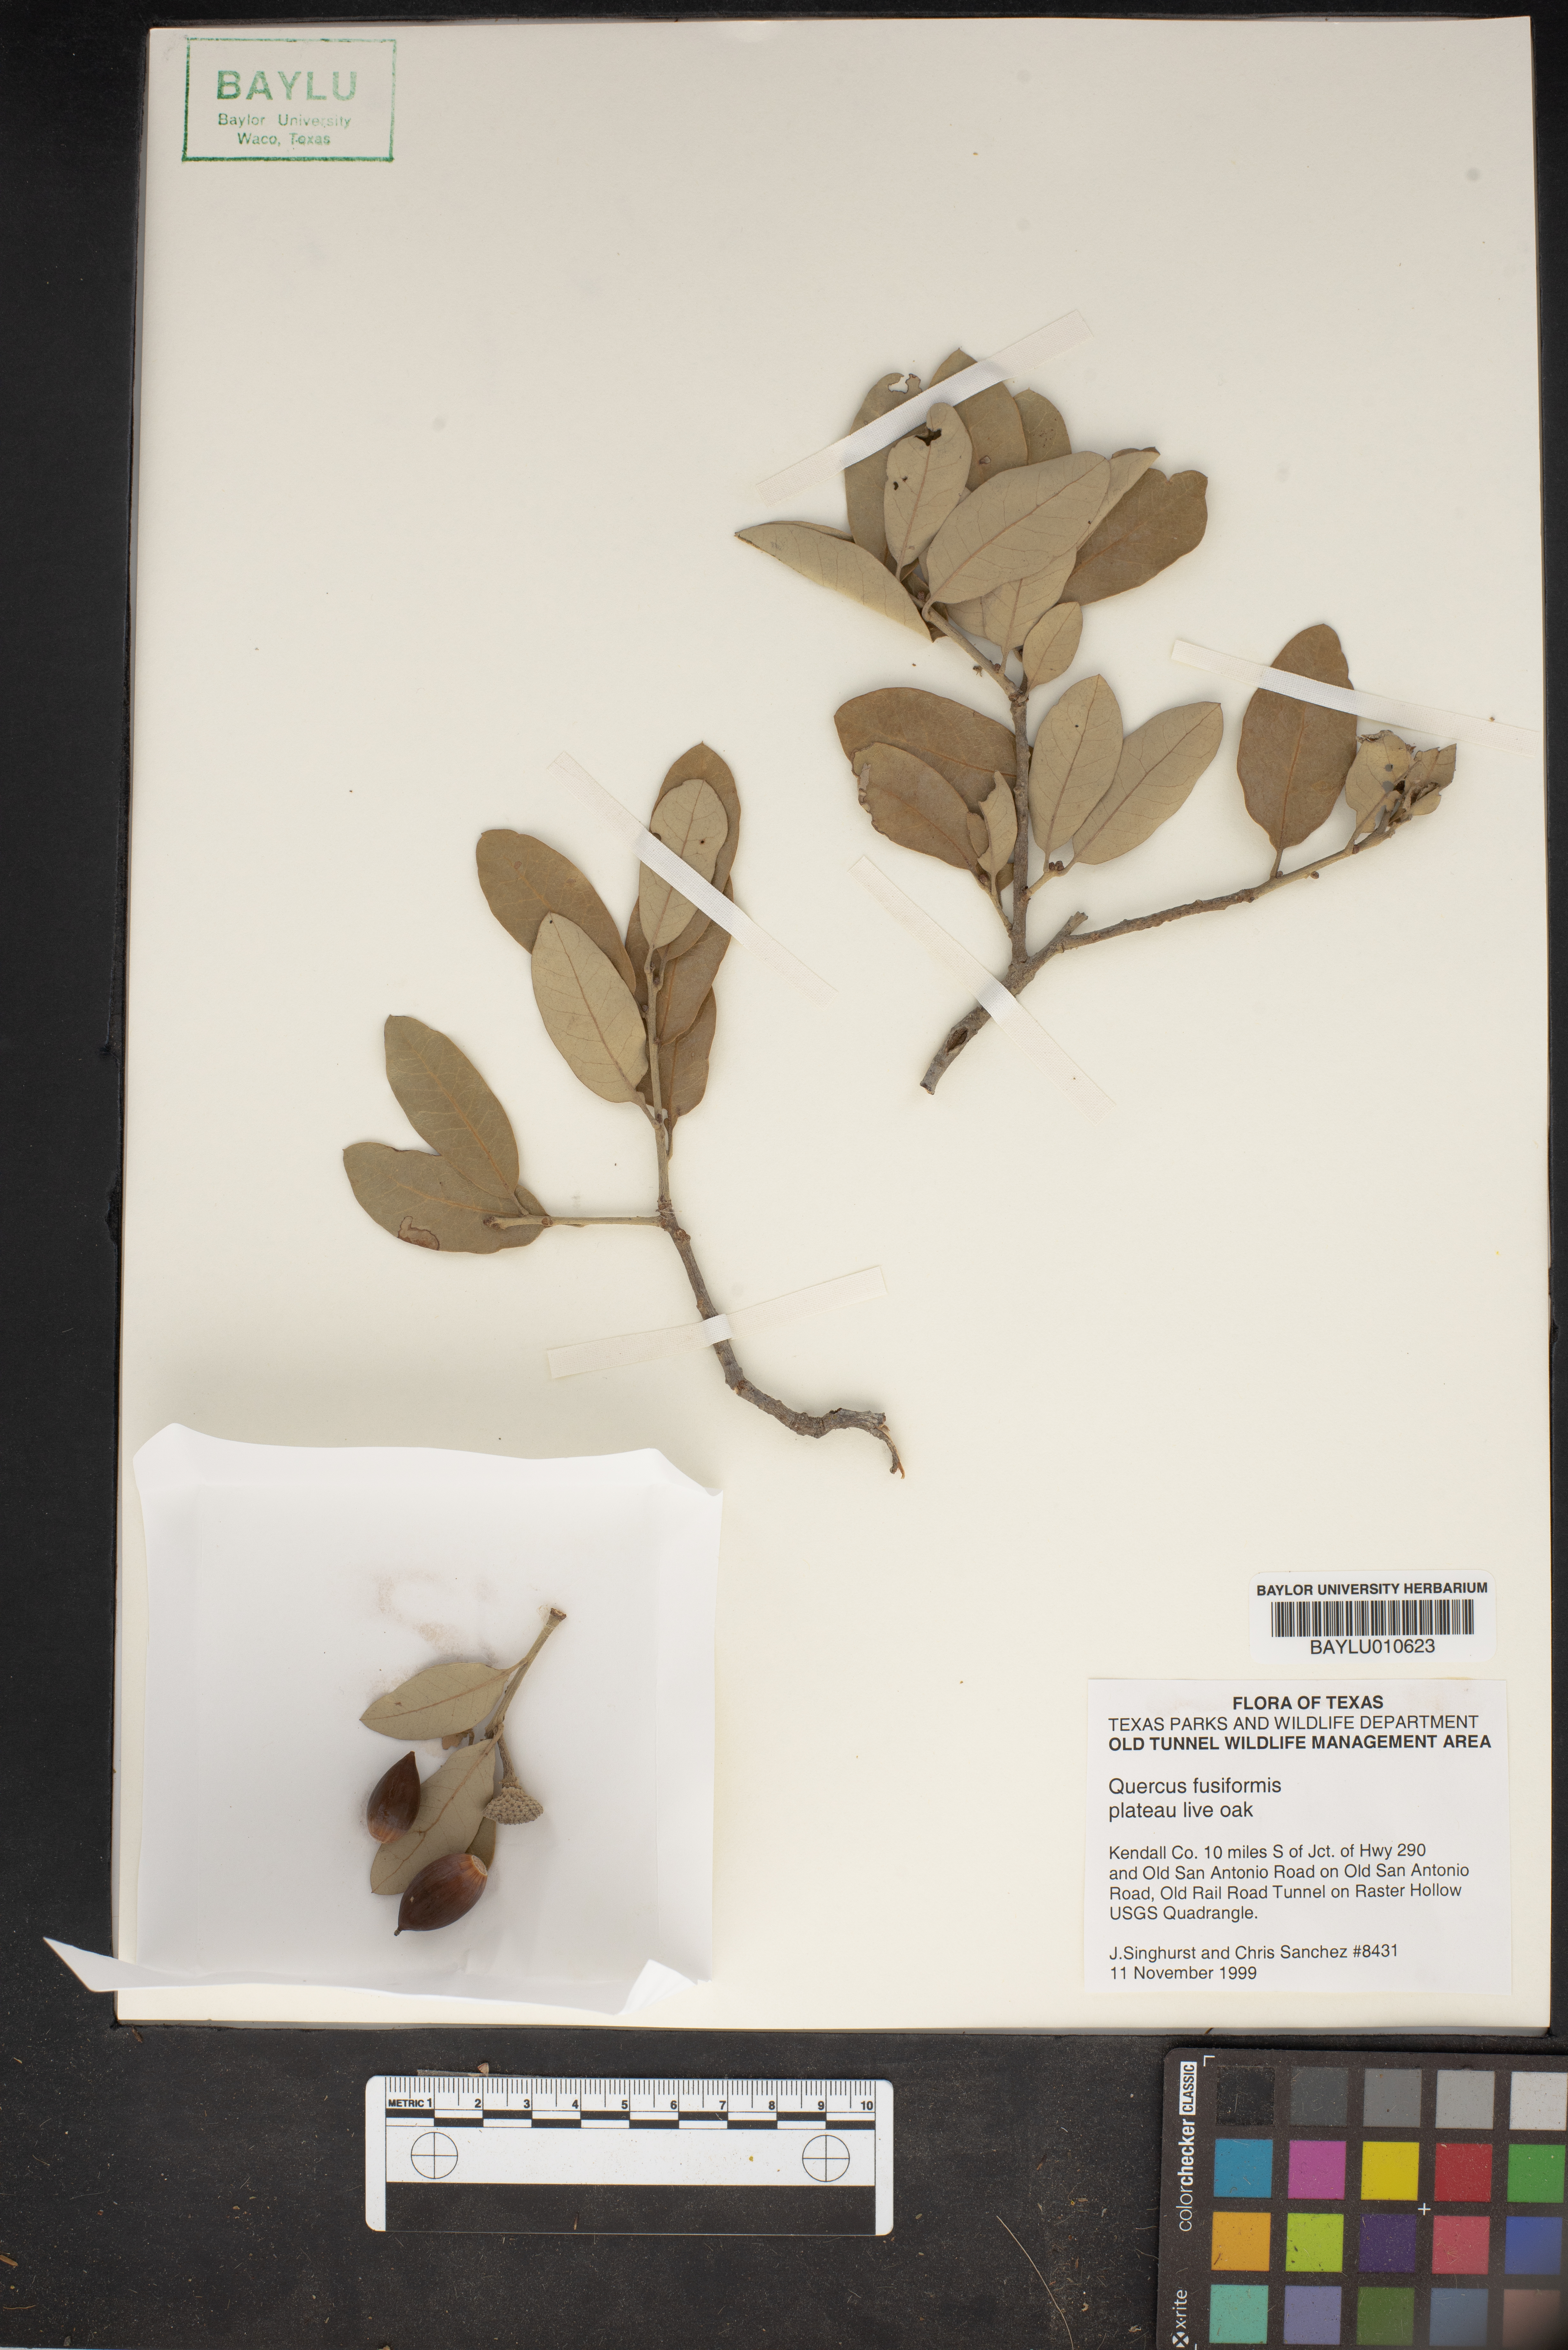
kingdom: Plantae
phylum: Tracheophyta
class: Magnoliopsida
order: Fagales
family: Fagaceae
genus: Quercus
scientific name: Quercus fusiformis
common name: Texas live oak
